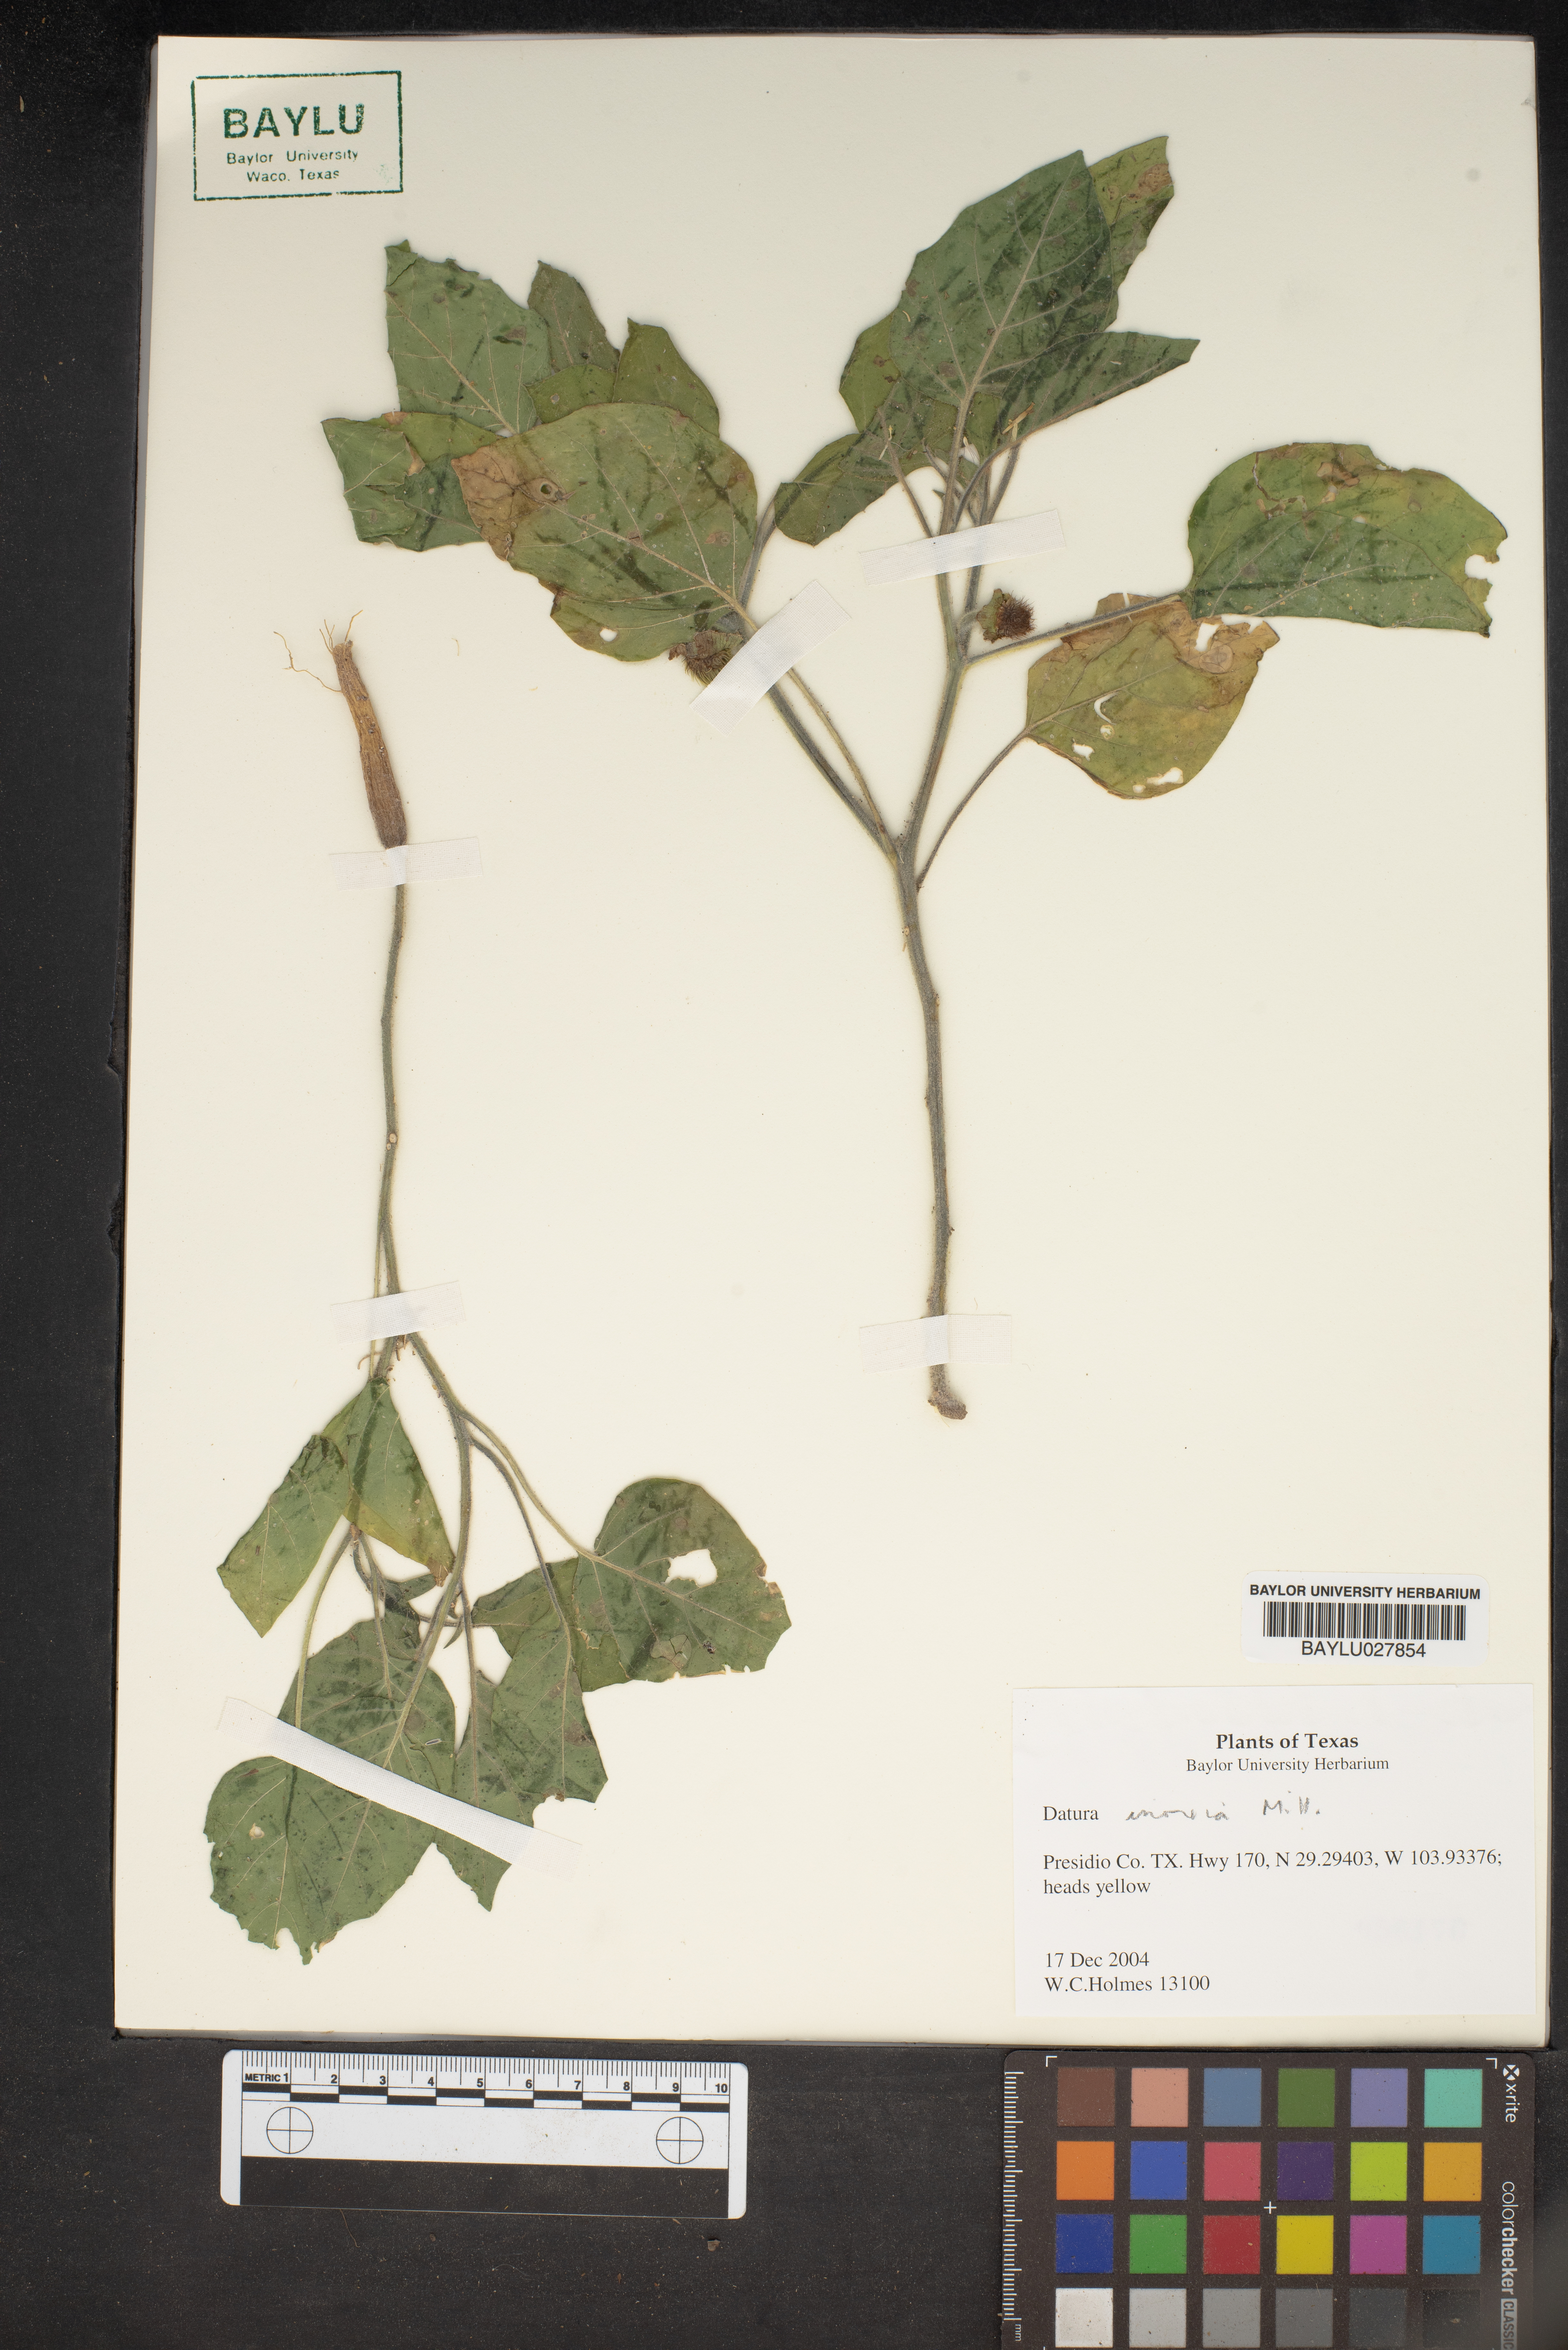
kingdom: Plantae
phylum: Tracheophyta
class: Magnoliopsida
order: Solanales
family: Solanaceae
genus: Datura
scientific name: Datura innoxia
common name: Downy thorn-apple
